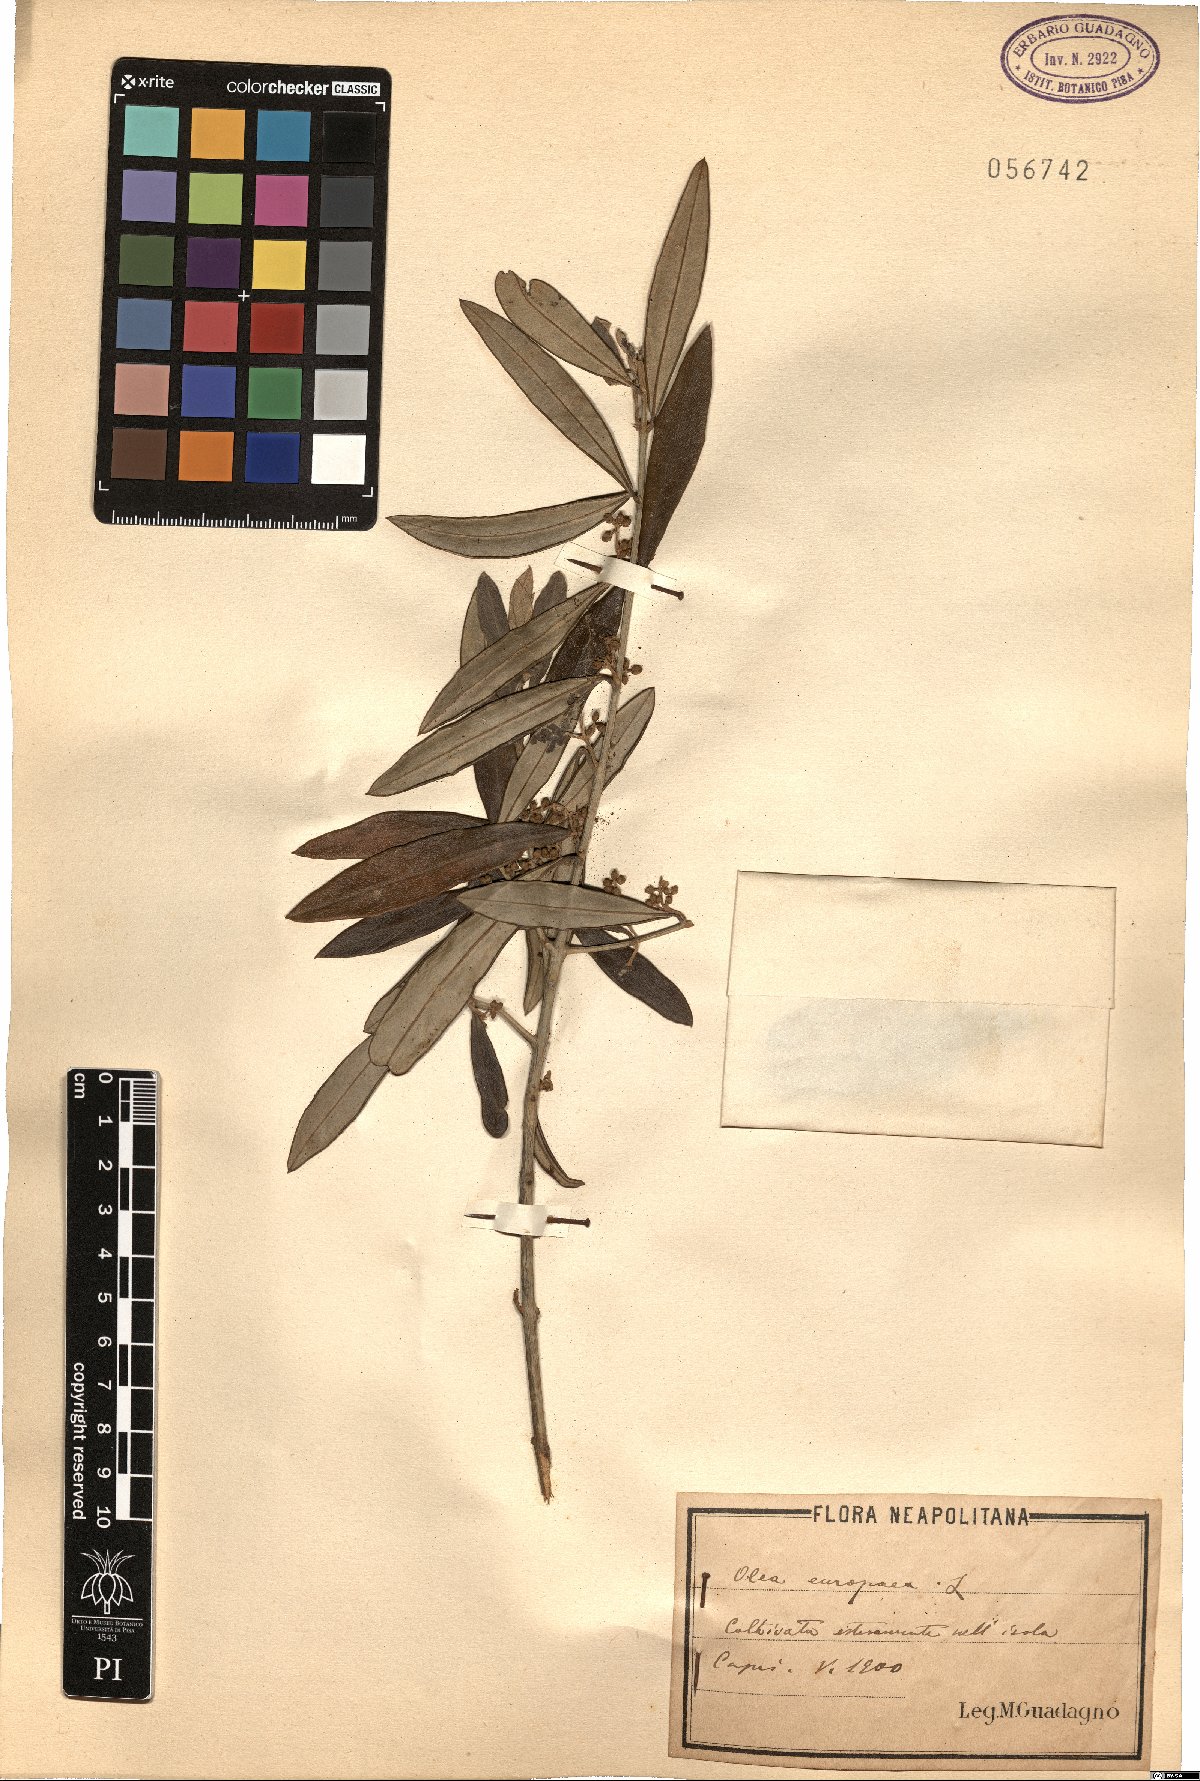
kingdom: Plantae
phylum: Tracheophyta
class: Magnoliopsida
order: Lamiales
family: Oleaceae
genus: Olea
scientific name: Olea europaea
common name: Olive
